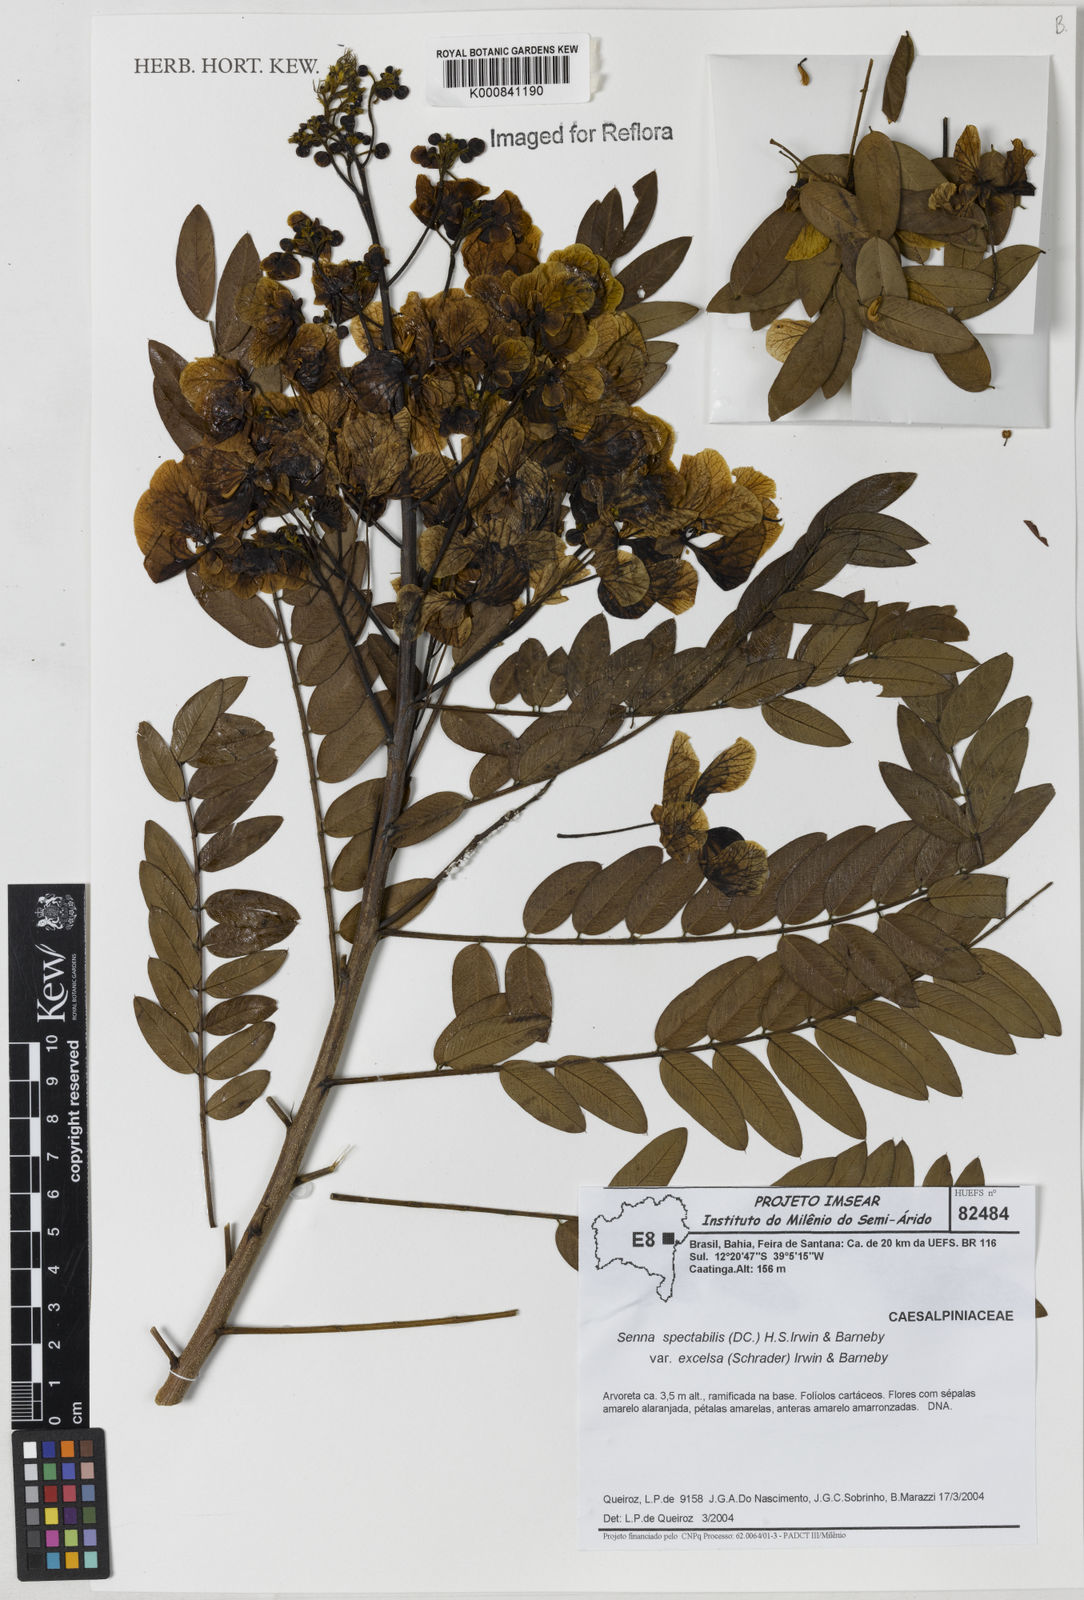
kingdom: Plantae
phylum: Tracheophyta
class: Magnoliopsida
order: Fabales
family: Fabaceae
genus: Senna
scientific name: Senna spectabilis
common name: Casia amarilla
